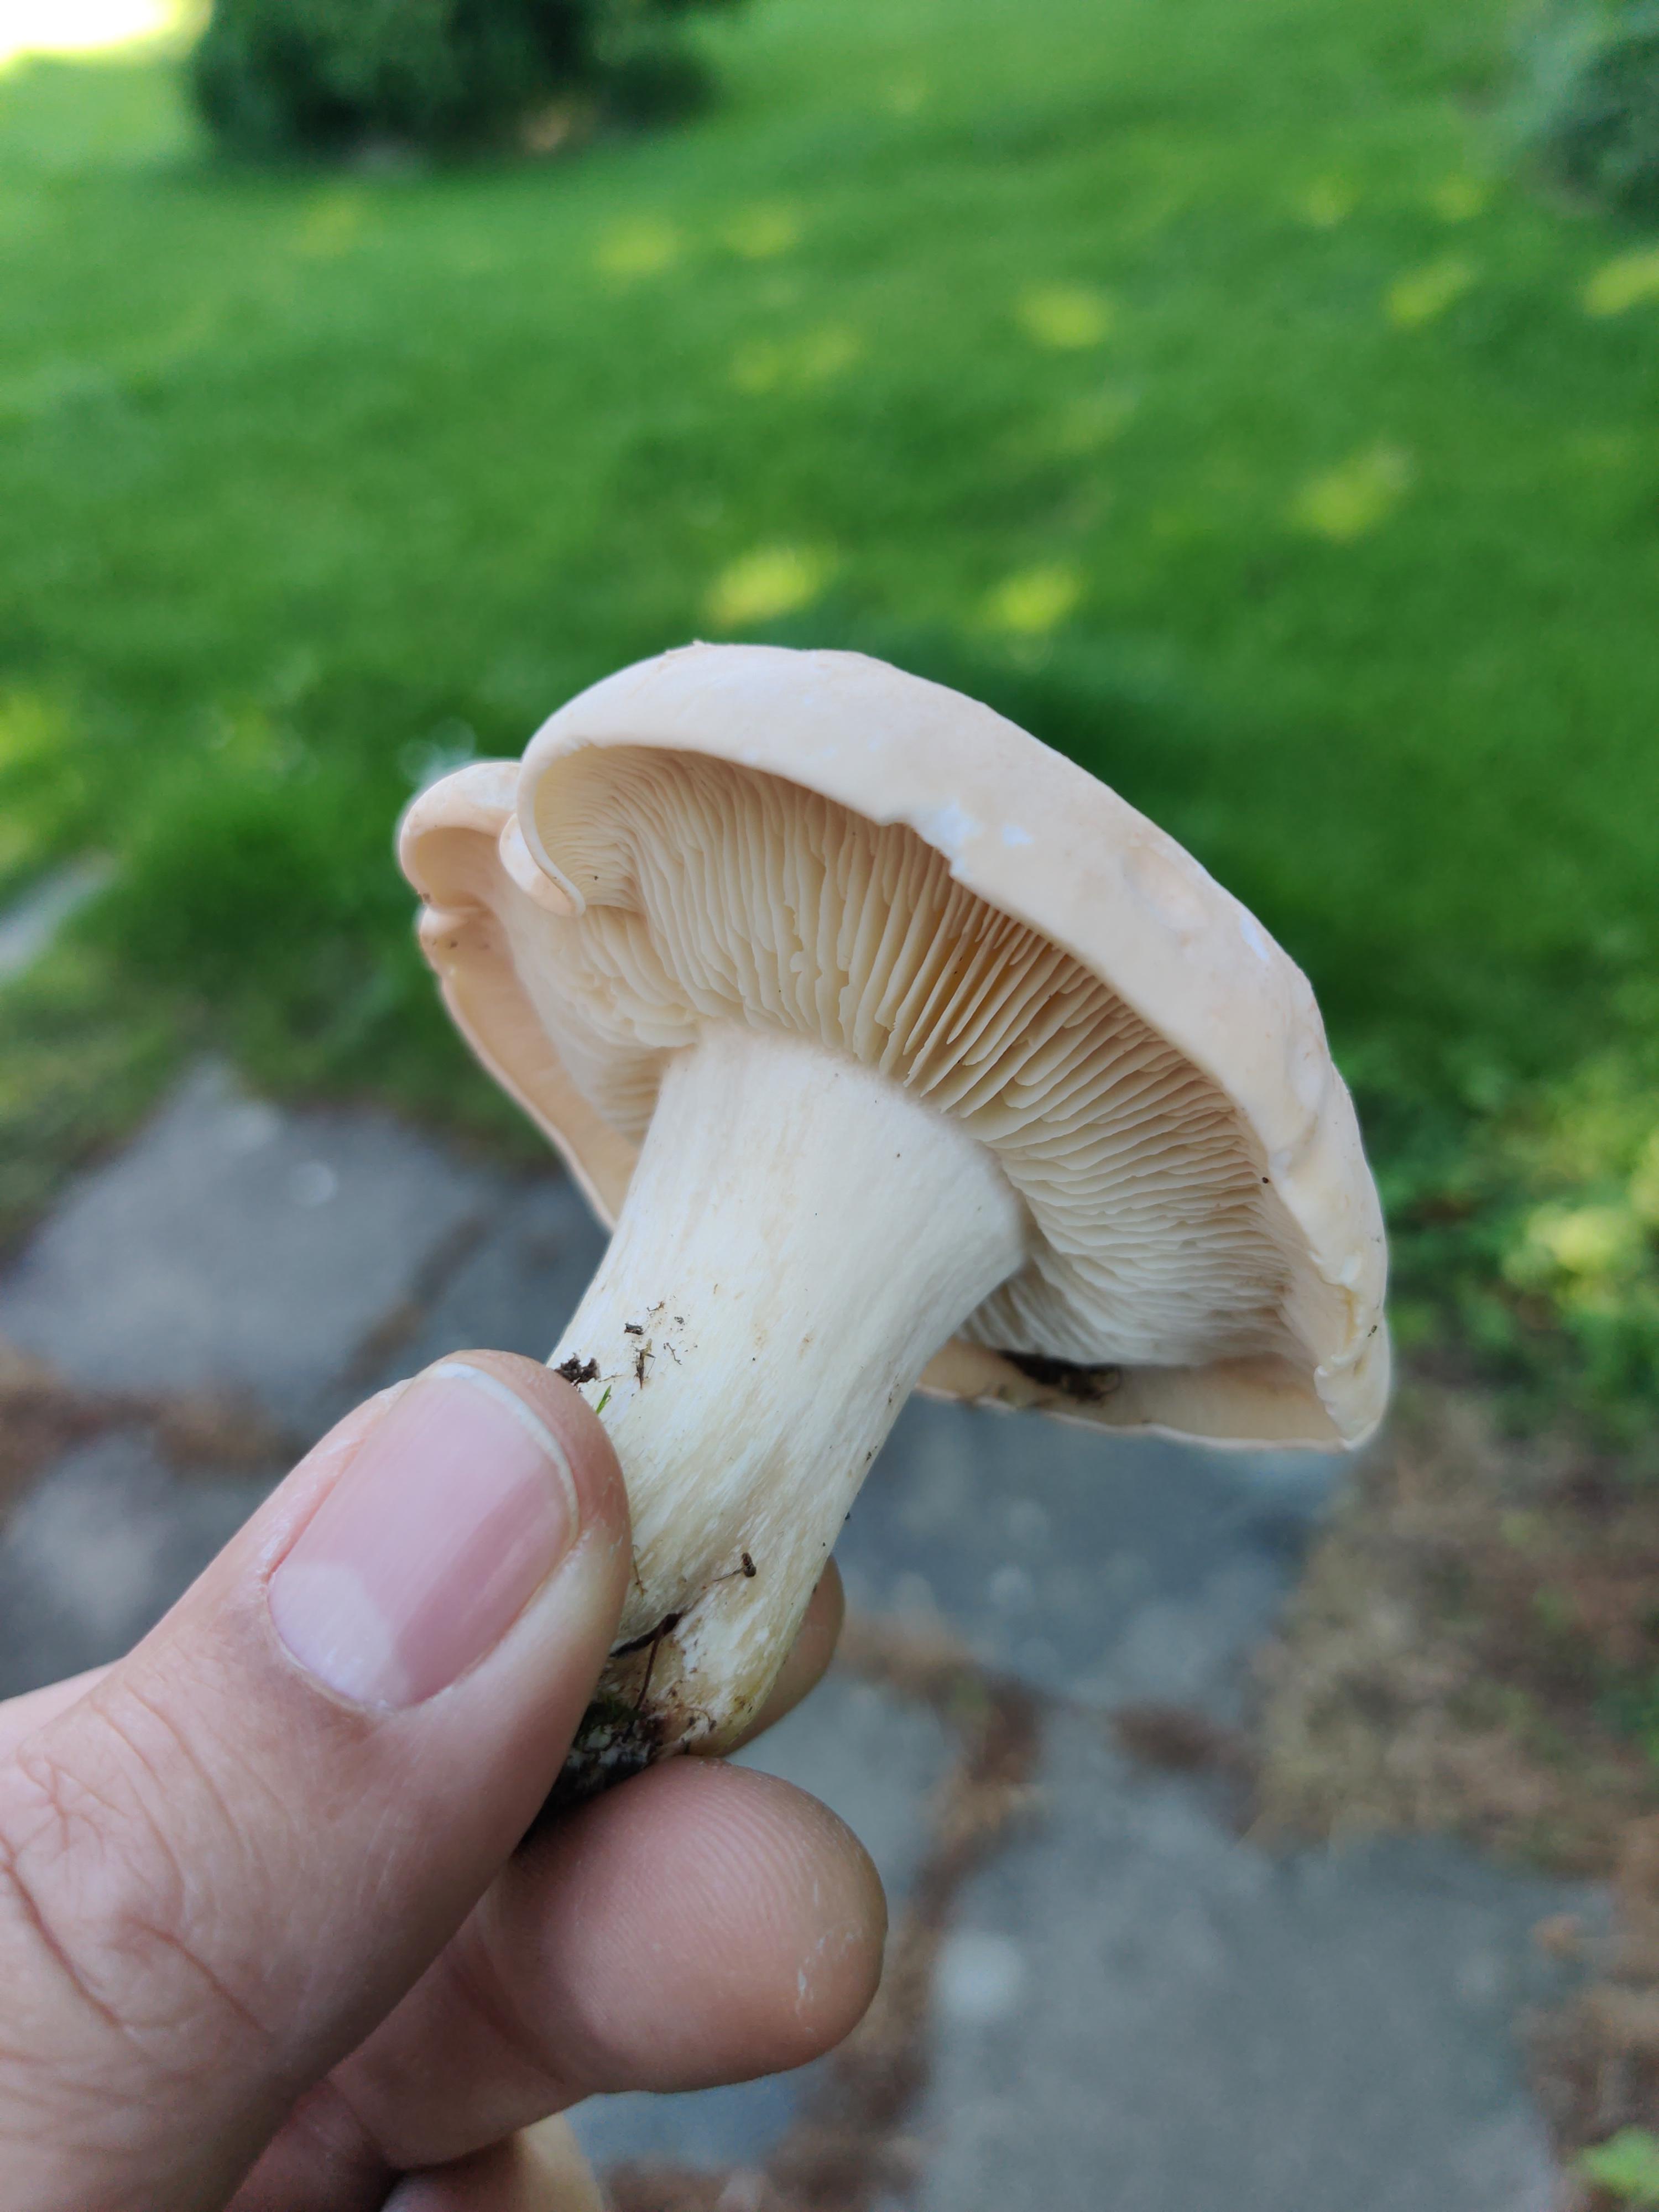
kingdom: Fungi
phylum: Basidiomycota
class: Agaricomycetes
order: Agaricales
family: Lyophyllaceae
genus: Calocybe
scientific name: Calocybe gambosa
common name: vårmusseron
